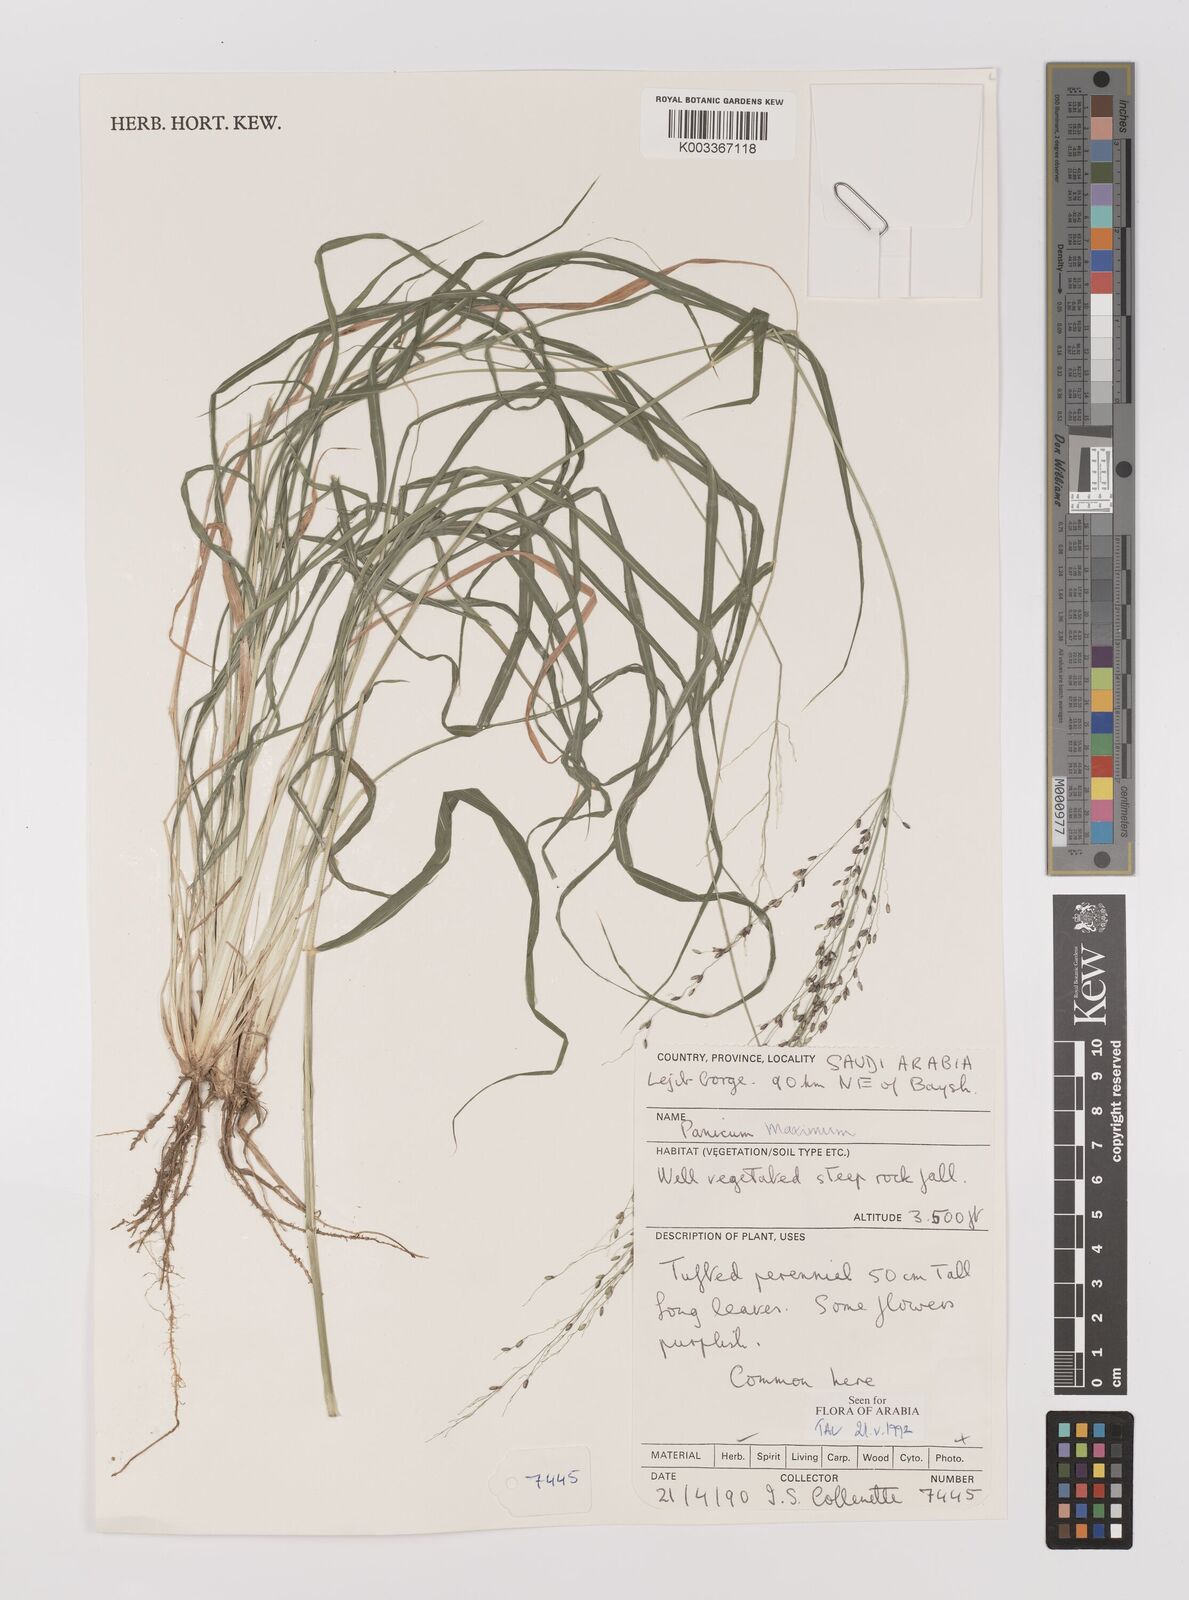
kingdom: Plantae
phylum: Tracheophyta
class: Liliopsida
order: Poales
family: Poaceae
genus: Megathyrsus
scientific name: Megathyrsus maximus
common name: Guineagrass
